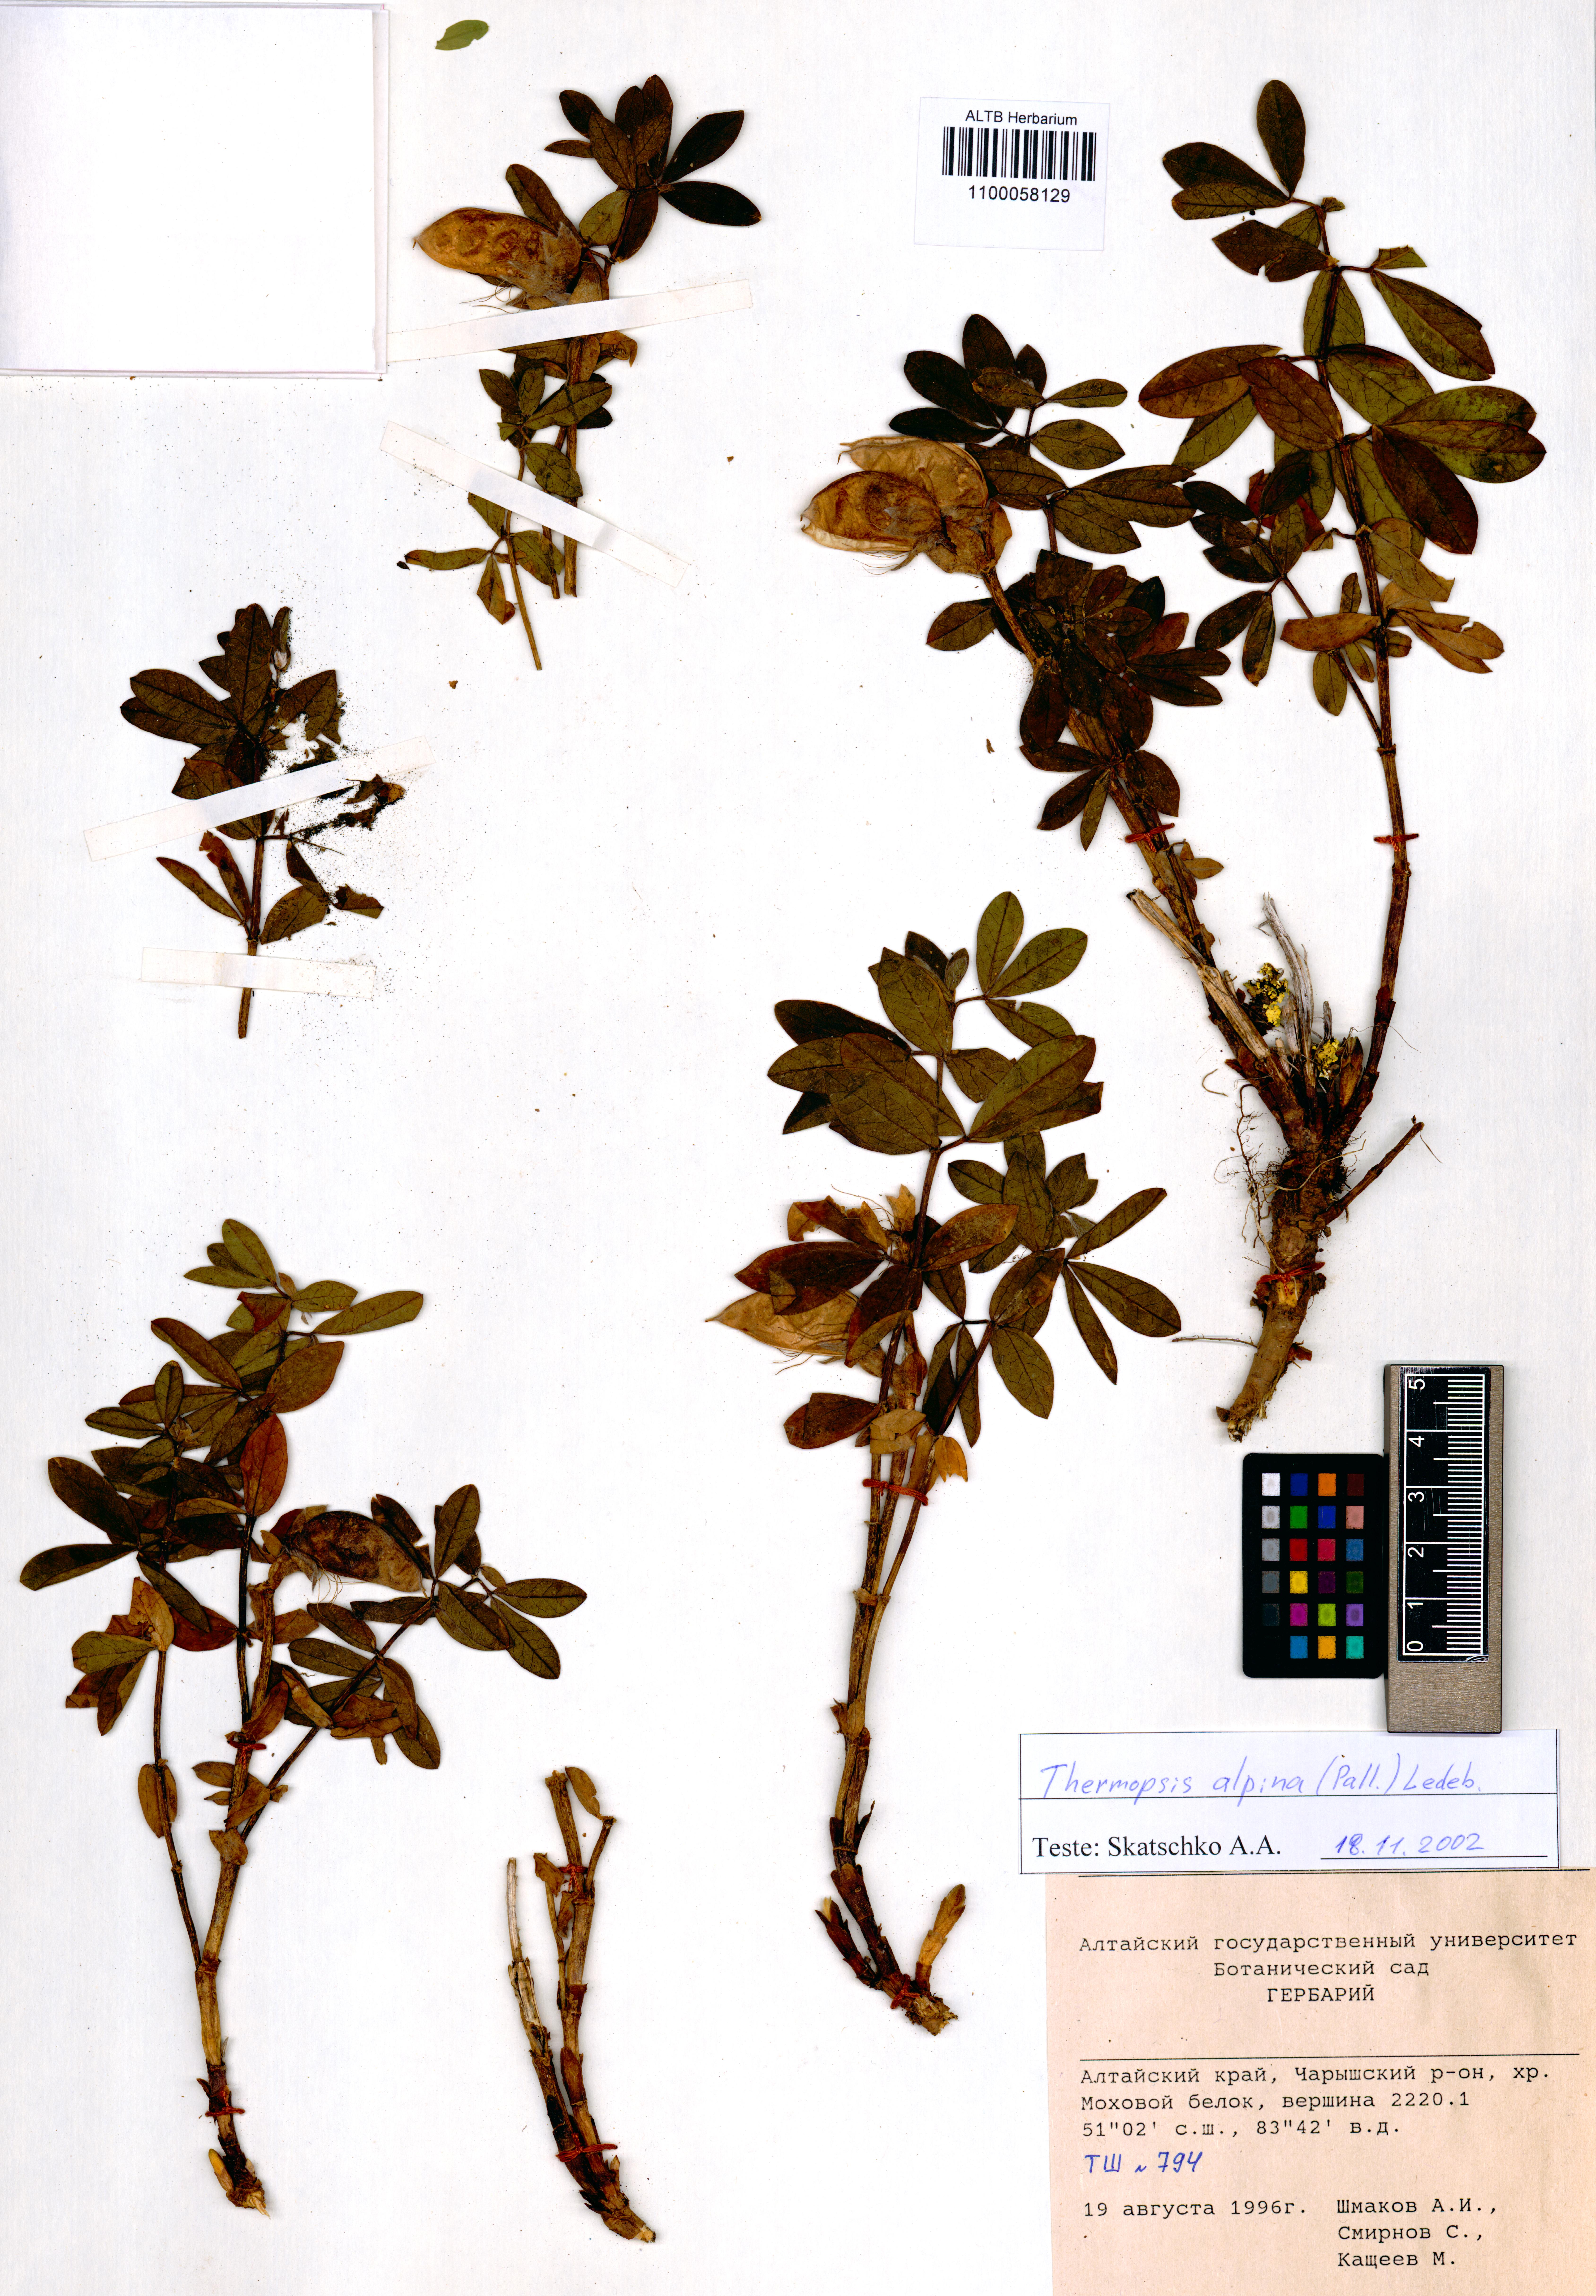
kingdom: Plantae
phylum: Tracheophyta
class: Magnoliopsida
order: Fabales
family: Fabaceae
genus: Thermopsis
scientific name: Thermopsis alpina
